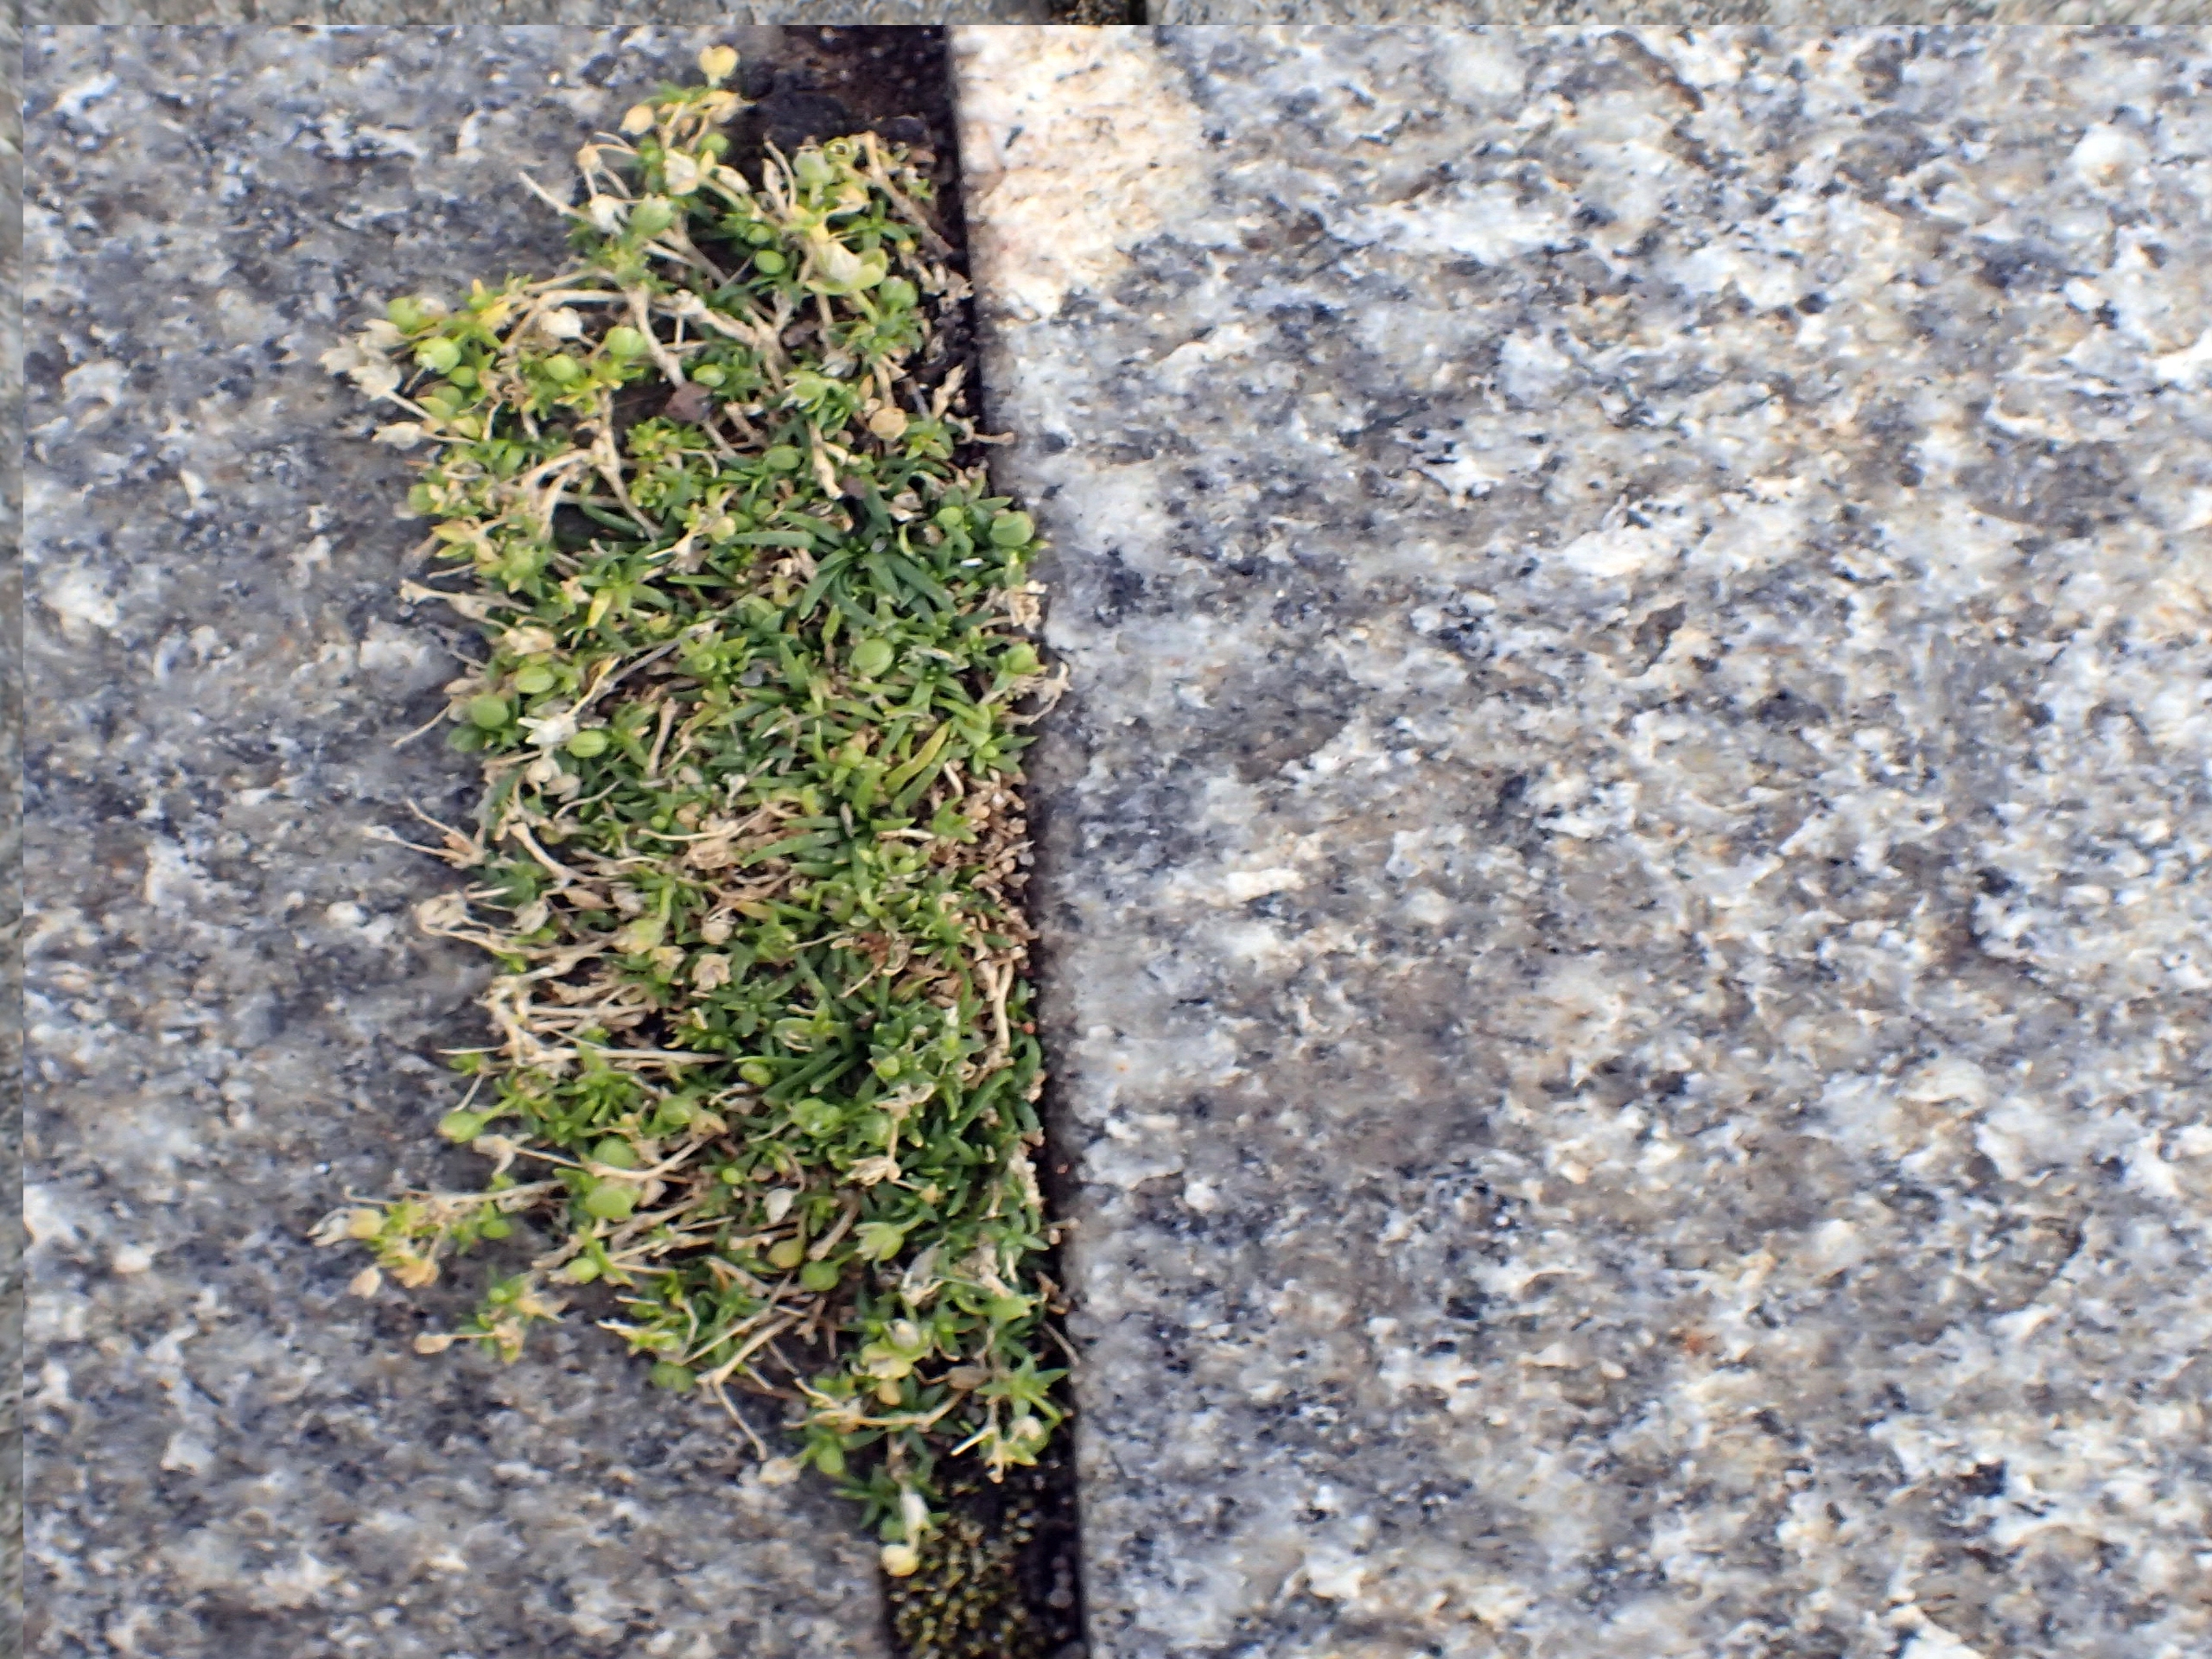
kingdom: Plantae
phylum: Tracheophyta
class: Magnoliopsida
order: Caryophyllales
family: Caryophyllaceae
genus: Sagina
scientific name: Sagina procumbens
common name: Almindelig firling
